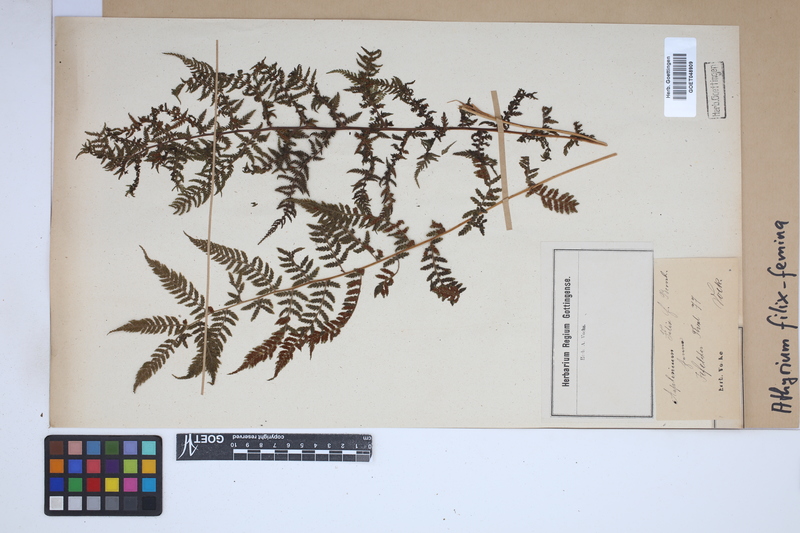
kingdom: Plantae
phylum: Tracheophyta
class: Polypodiopsida
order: Polypodiales
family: Athyriaceae
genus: Athyrium
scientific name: Athyrium filix-femina
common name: Lady fern
